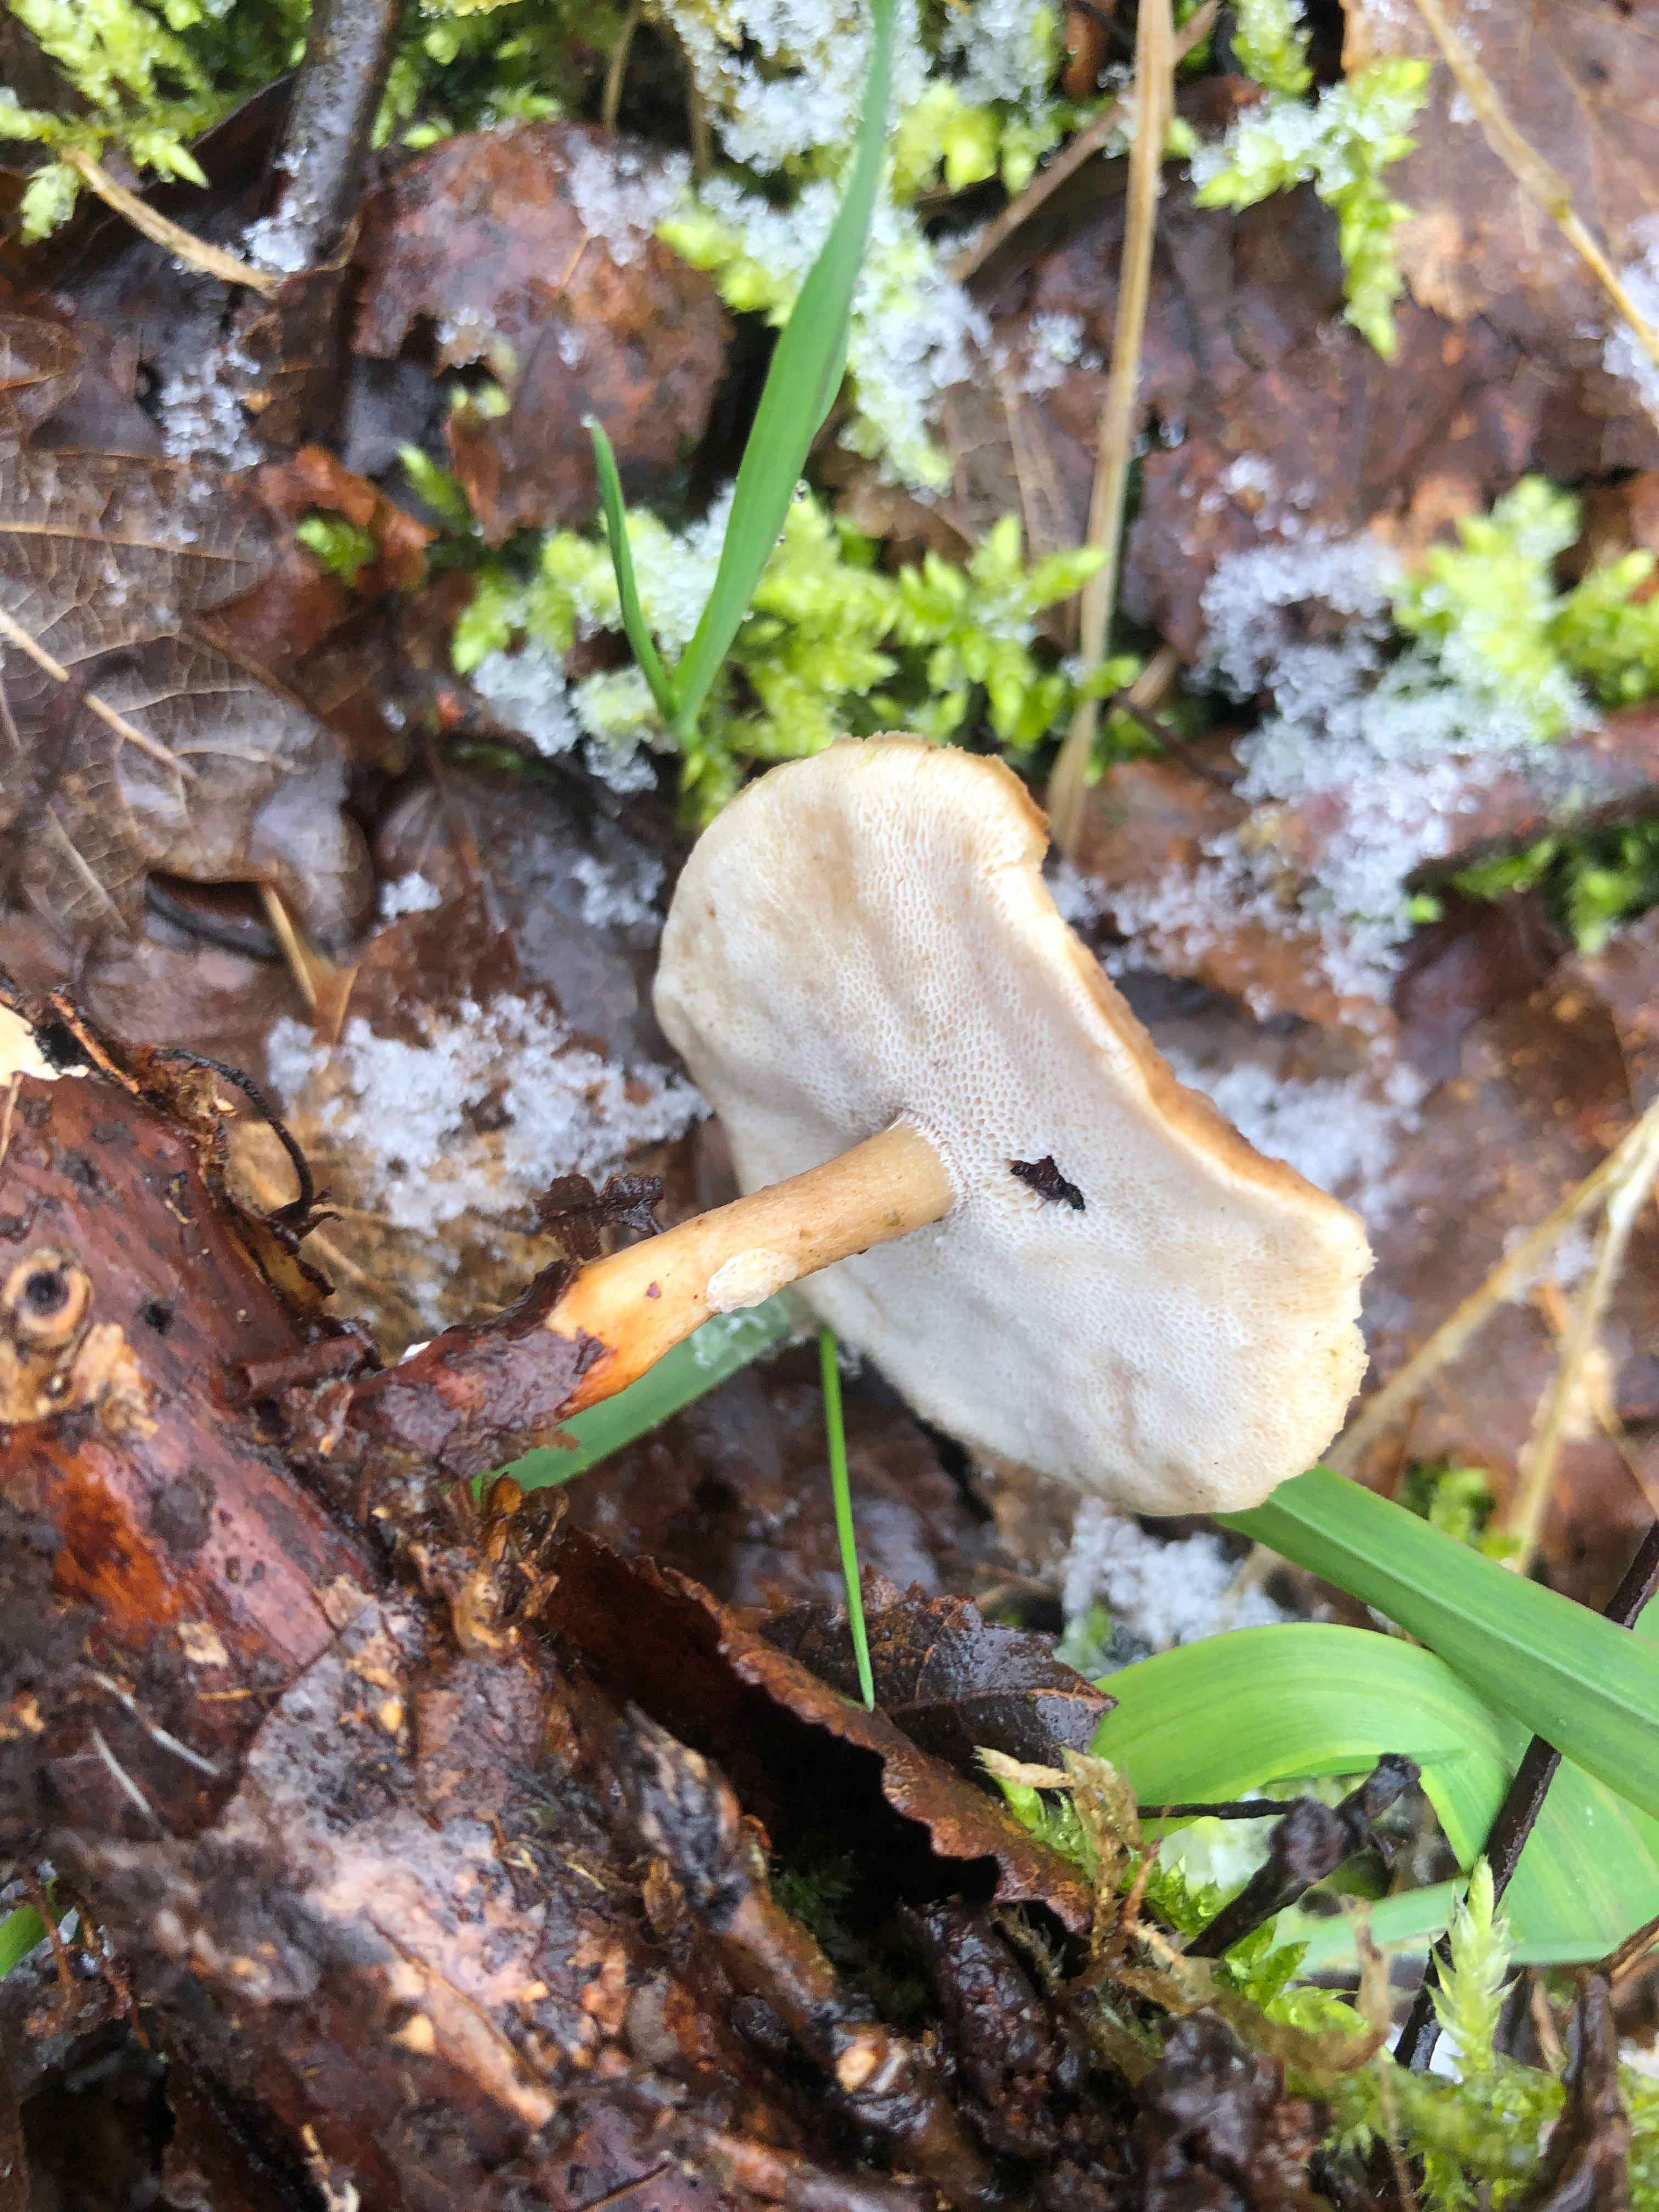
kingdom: Fungi
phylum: Basidiomycota
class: Agaricomycetes
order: Polyporales
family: Polyporaceae
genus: Lentinus
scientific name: Lentinus brumalis
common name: vinter-stilkporesvamp
